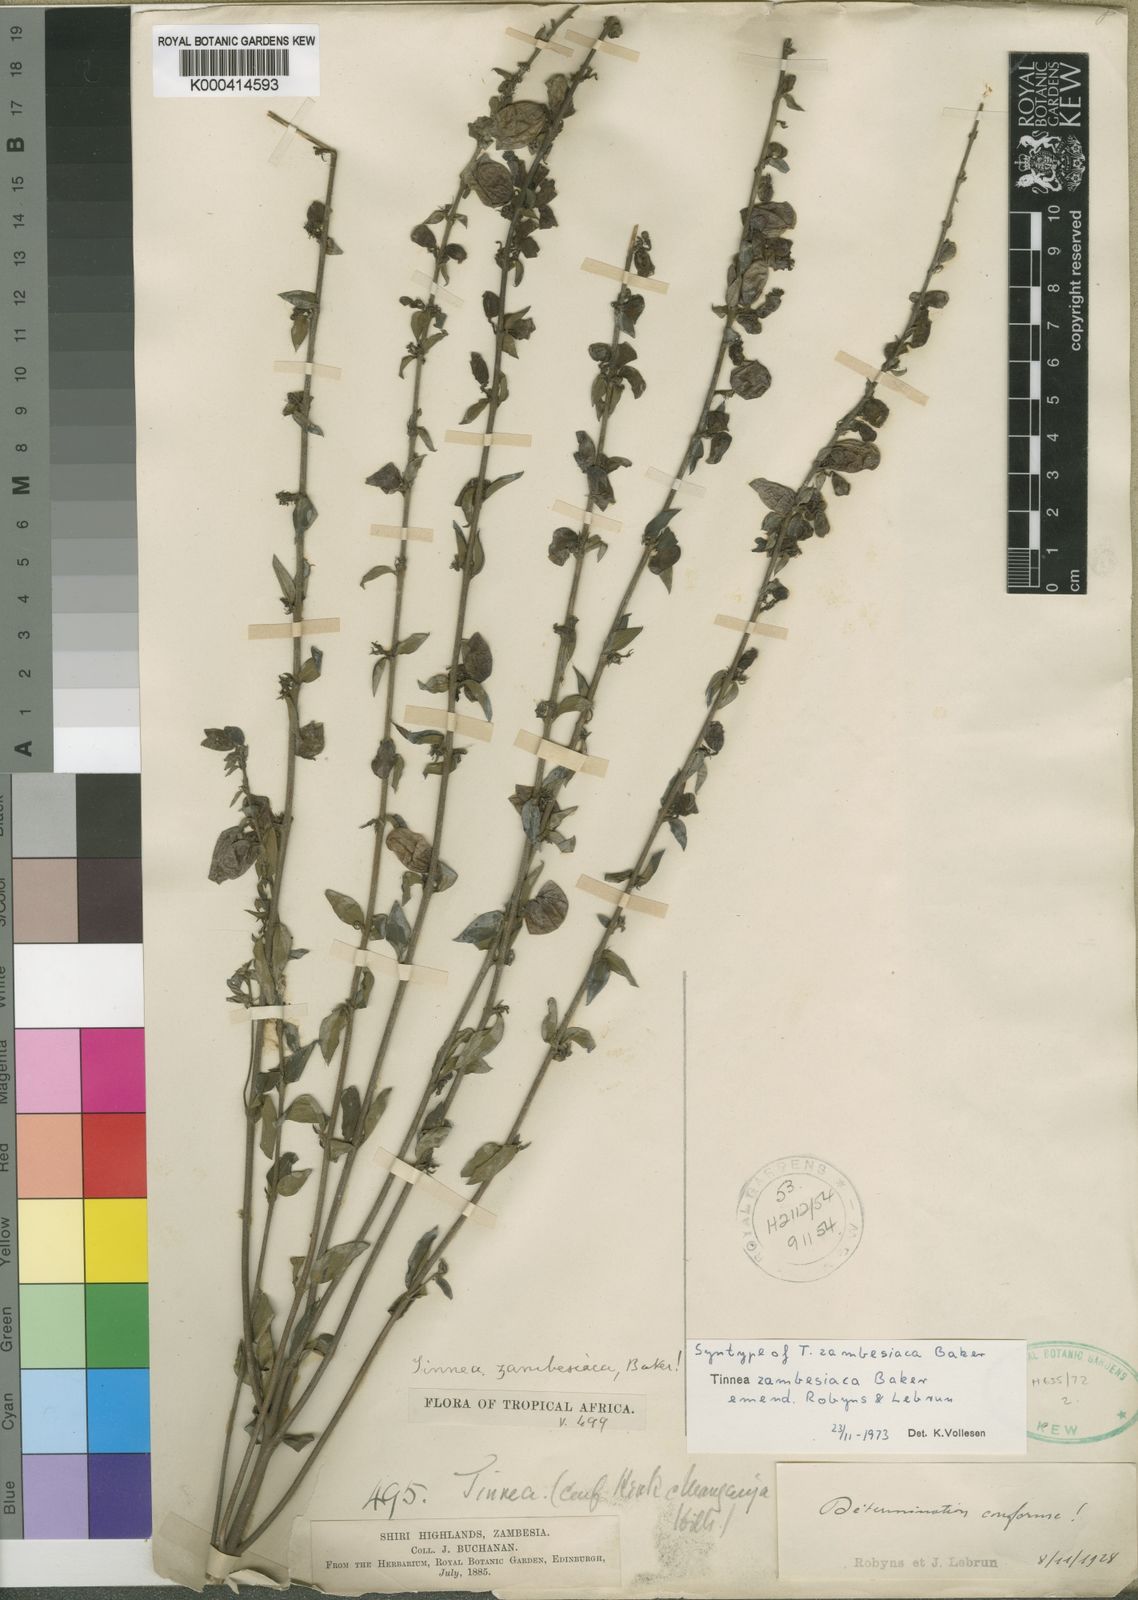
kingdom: Plantae
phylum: Tracheophyta
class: Magnoliopsida
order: Lamiales
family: Lamiaceae
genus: Tinnea
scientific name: Tinnea zambesiaca
